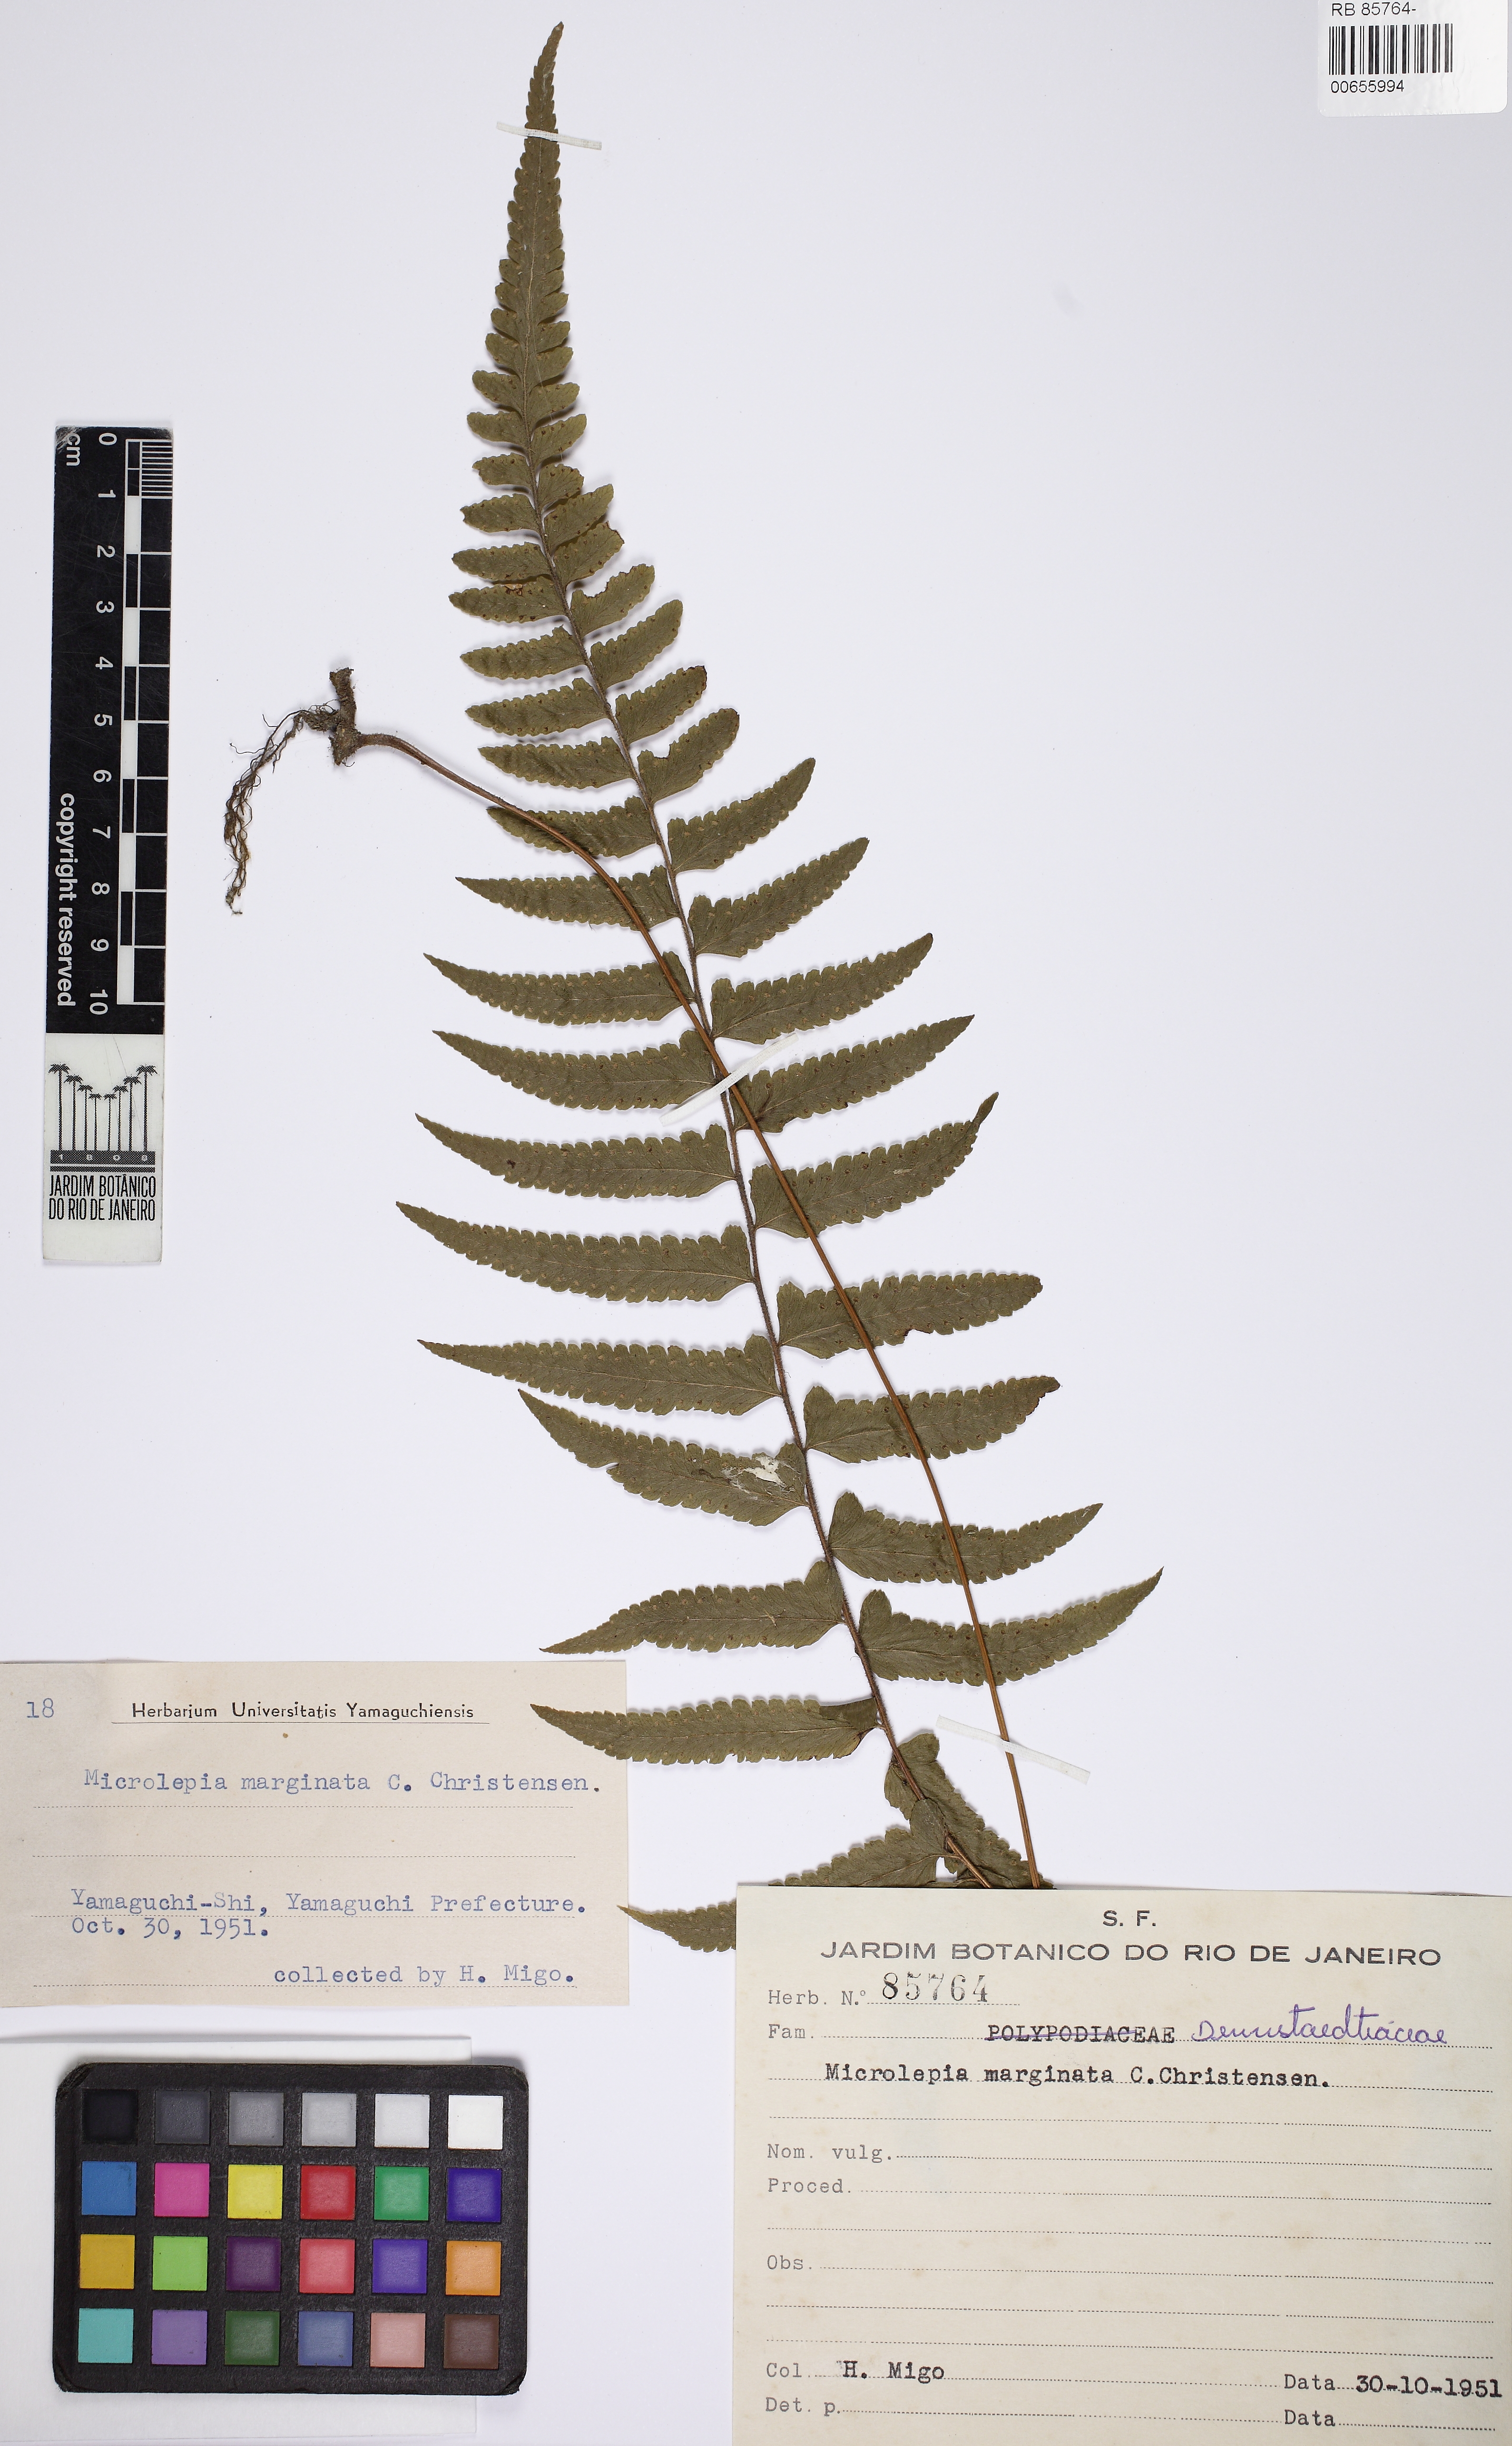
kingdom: Plantae
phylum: Tracheophyta
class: Polypodiopsida
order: Polypodiales
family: Dennstaedtiaceae
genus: Microlepia
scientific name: Microlepia marginata
